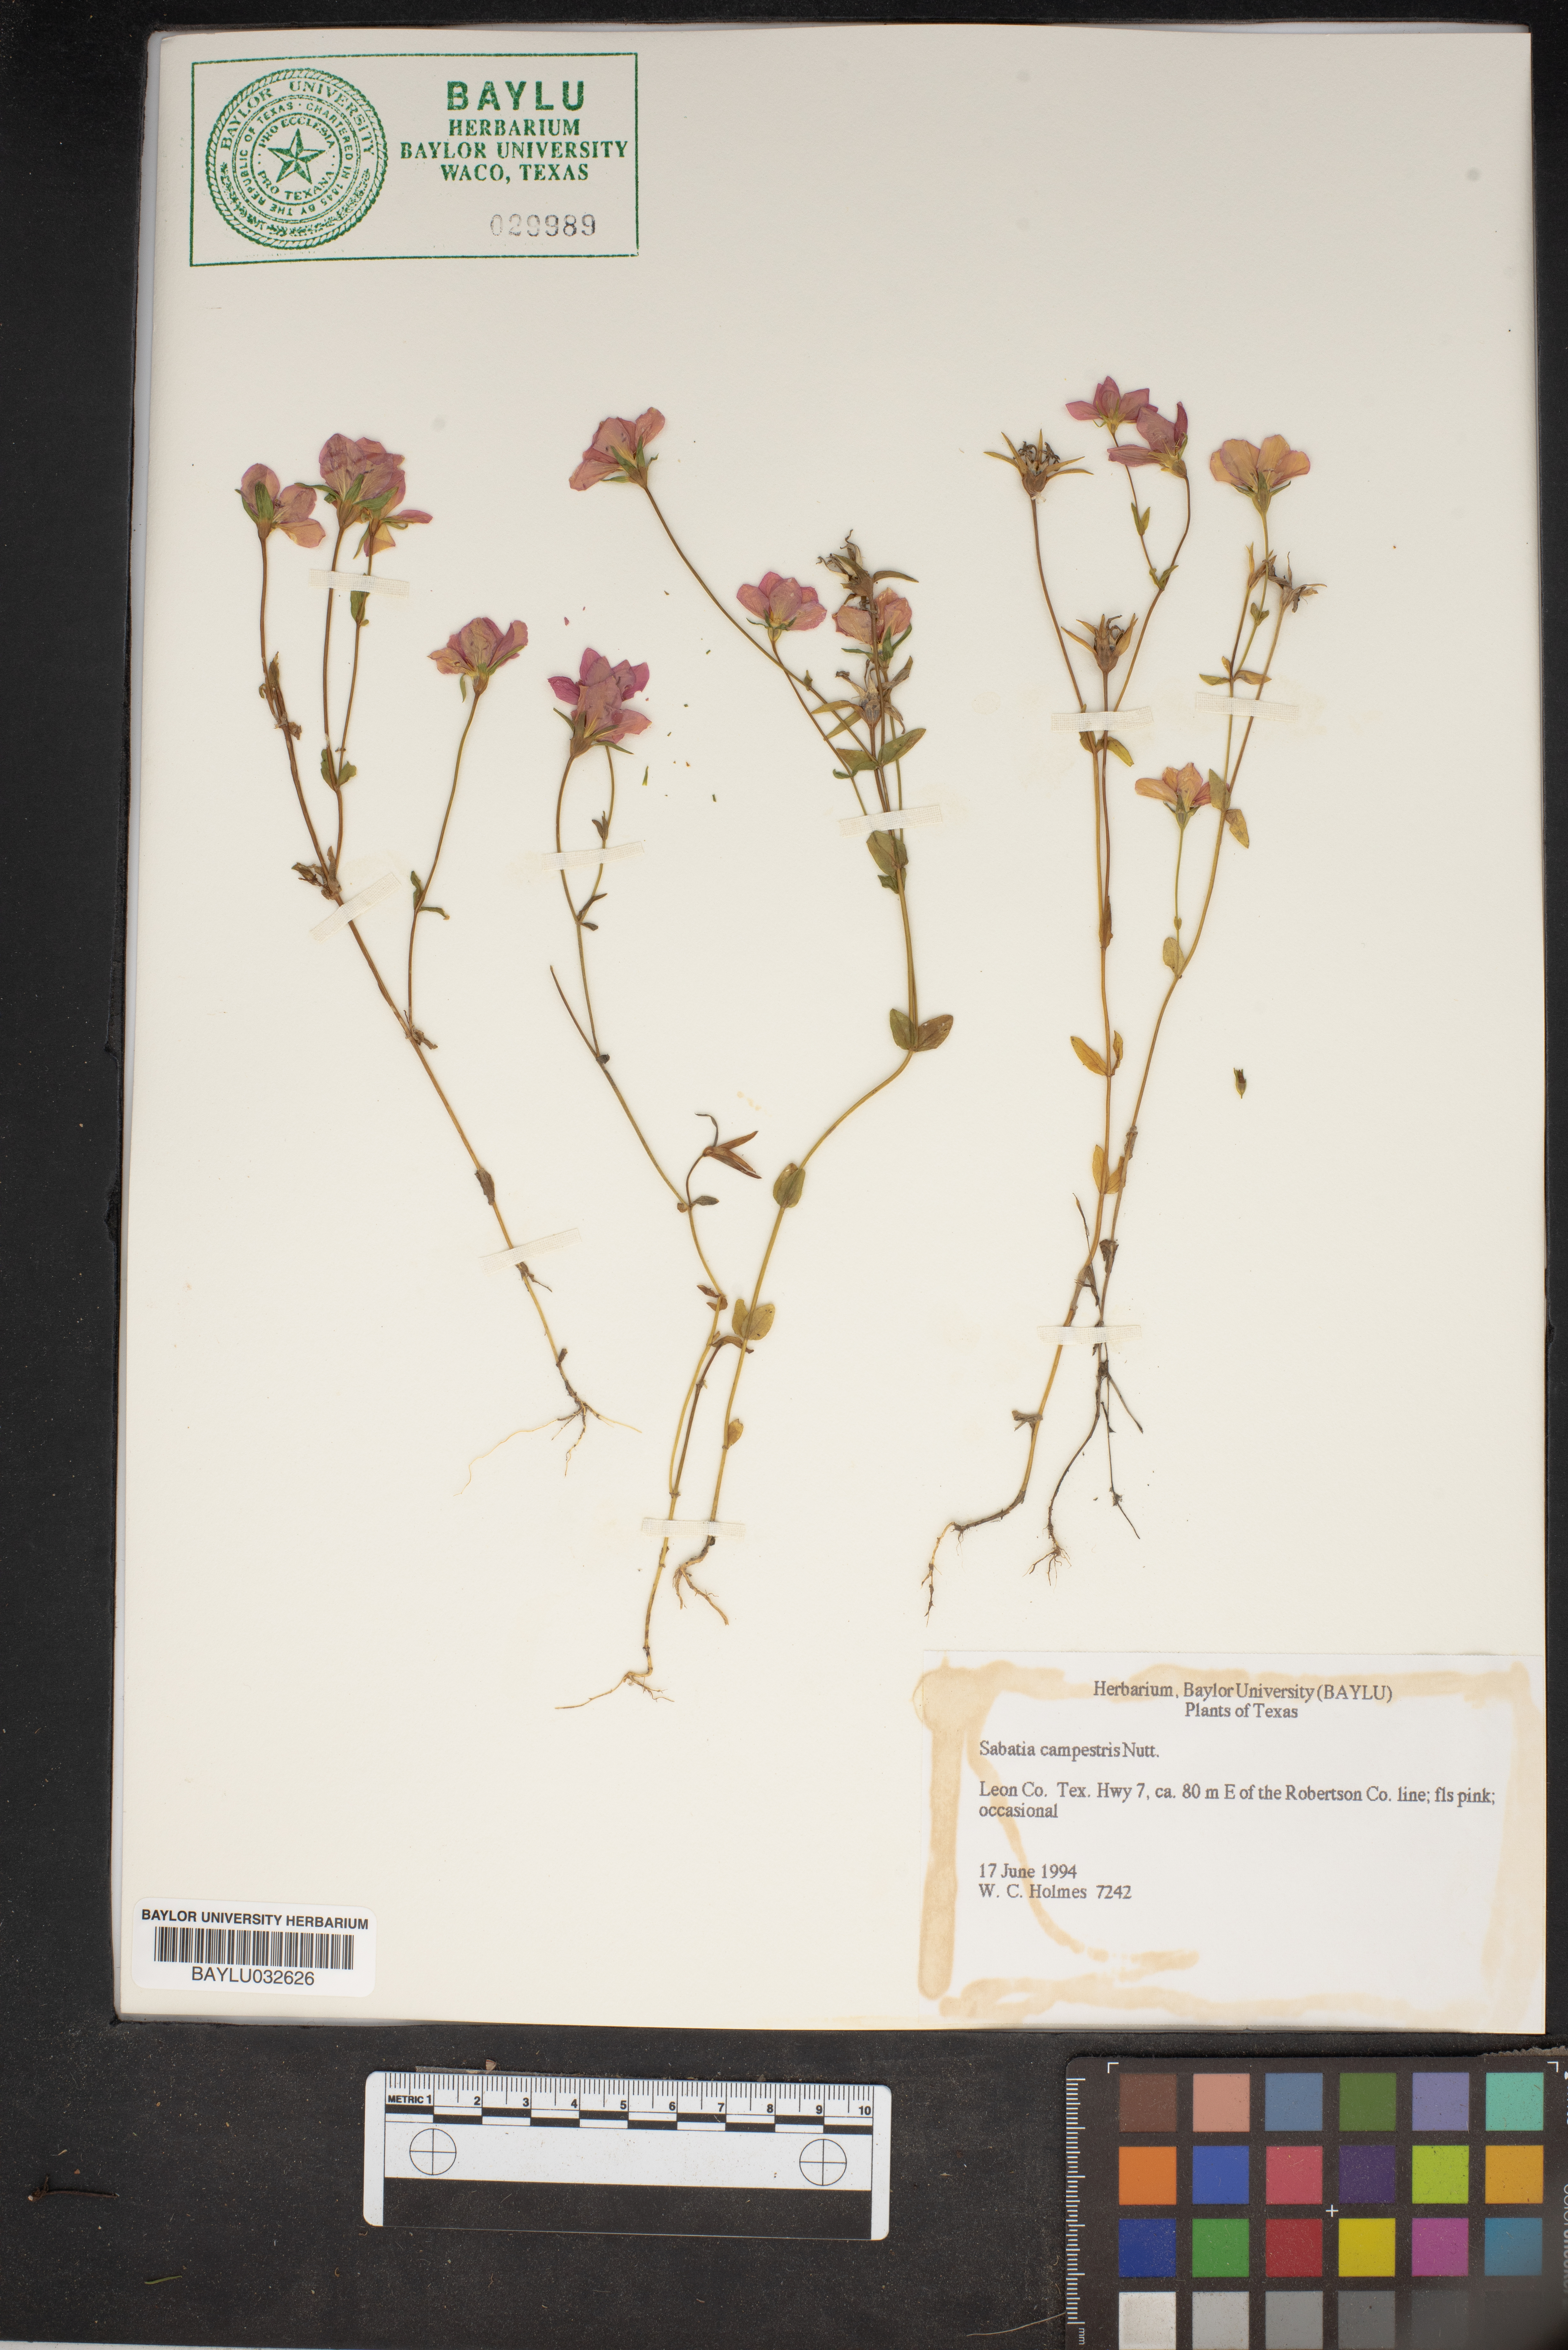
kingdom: Plantae
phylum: Tracheophyta
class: Magnoliopsida
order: Gentianales
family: Gentianaceae
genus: Sabatia
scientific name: Sabatia campestris
